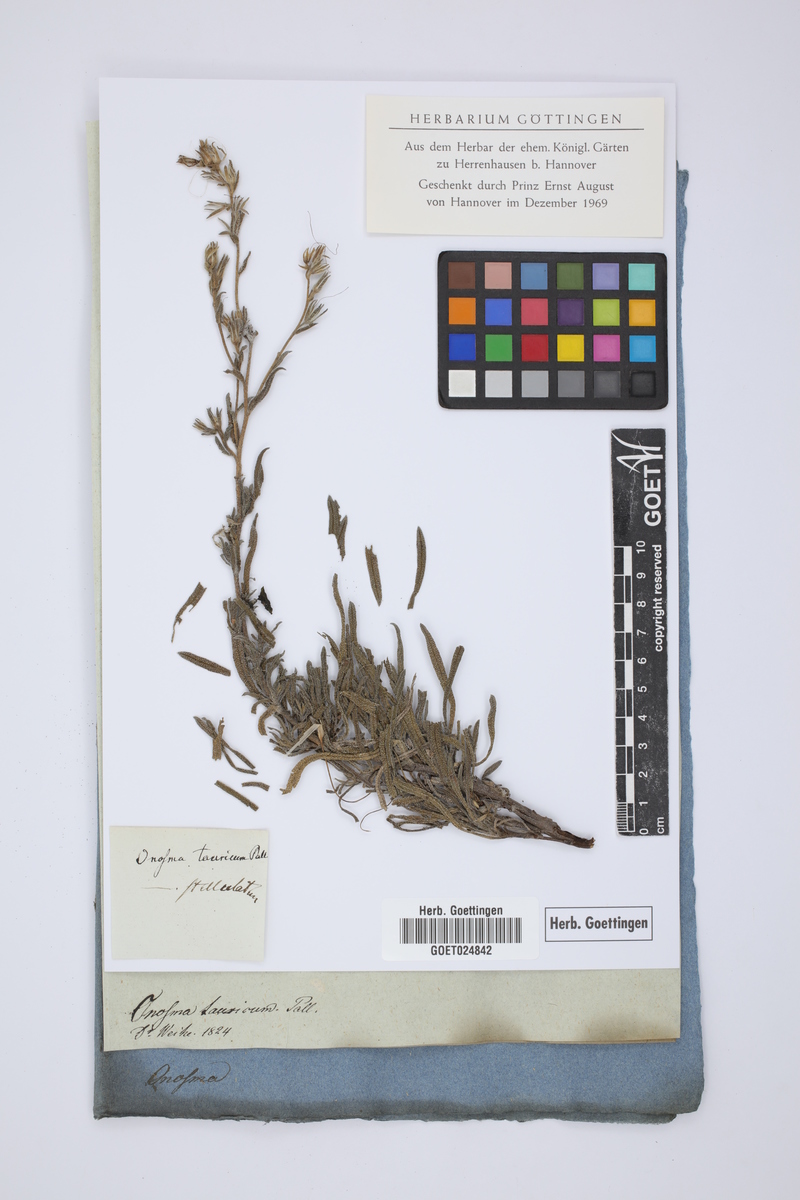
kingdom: Plantae
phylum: Tracheophyta
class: Magnoliopsida
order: Boraginales
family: Boraginaceae
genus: Onosma
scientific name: Onosma taurica
